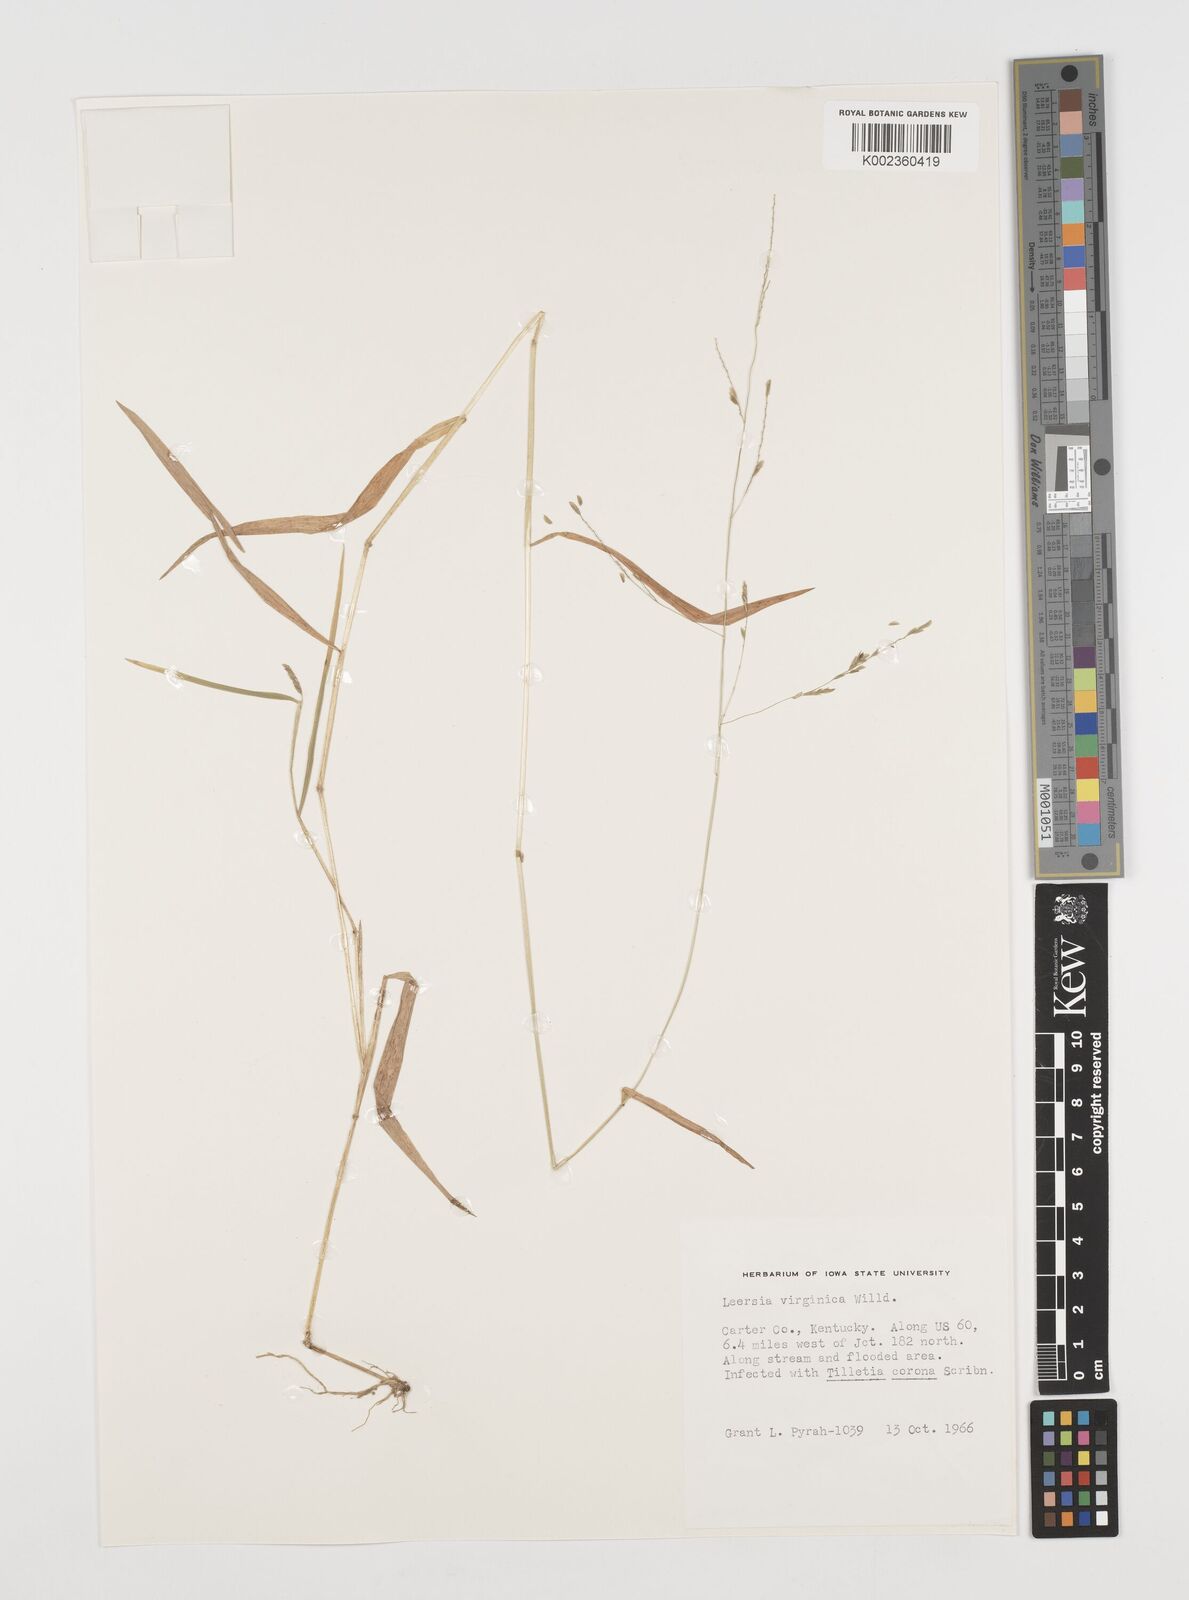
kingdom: Plantae
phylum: Tracheophyta
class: Liliopsida
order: Poales
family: Poaceae
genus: Leersia
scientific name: Leersia virginica
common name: White cutgrass
